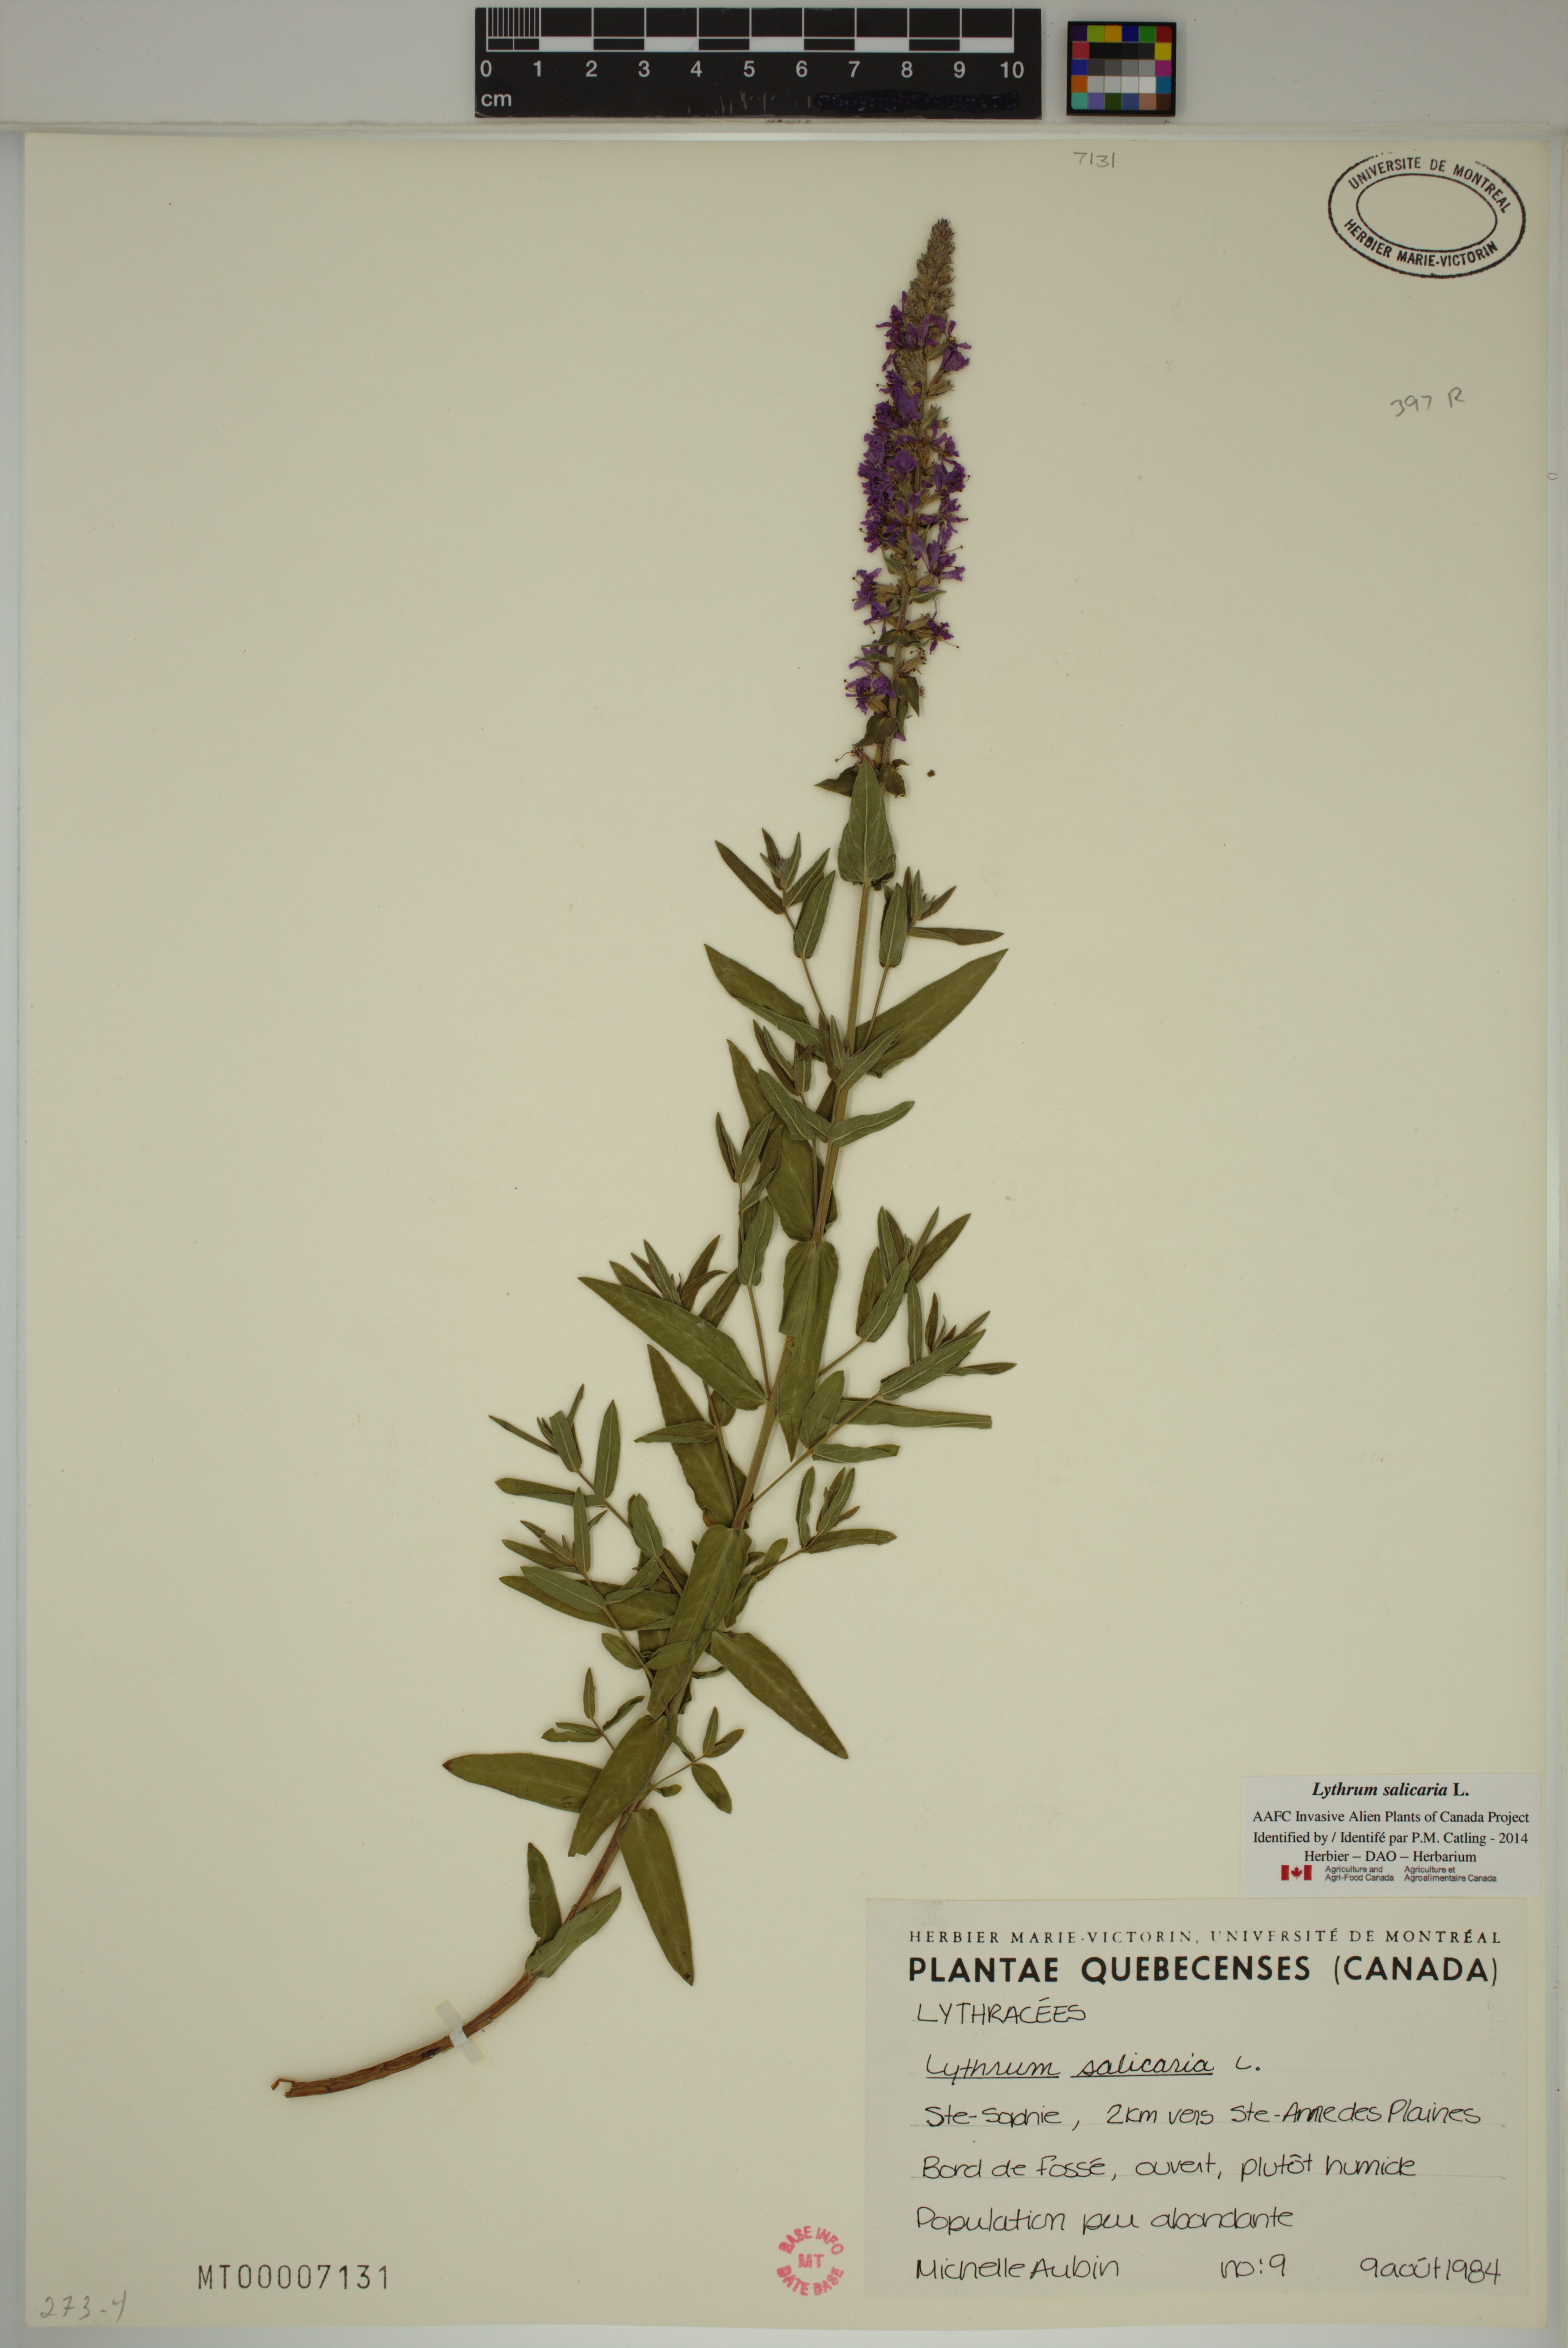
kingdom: Plantae
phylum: Tracheophyta
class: Magnoliopsida
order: Myrtales
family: Lythraceae
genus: Lythrum
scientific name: Lythrum salicaria
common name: Purple loosestrife
